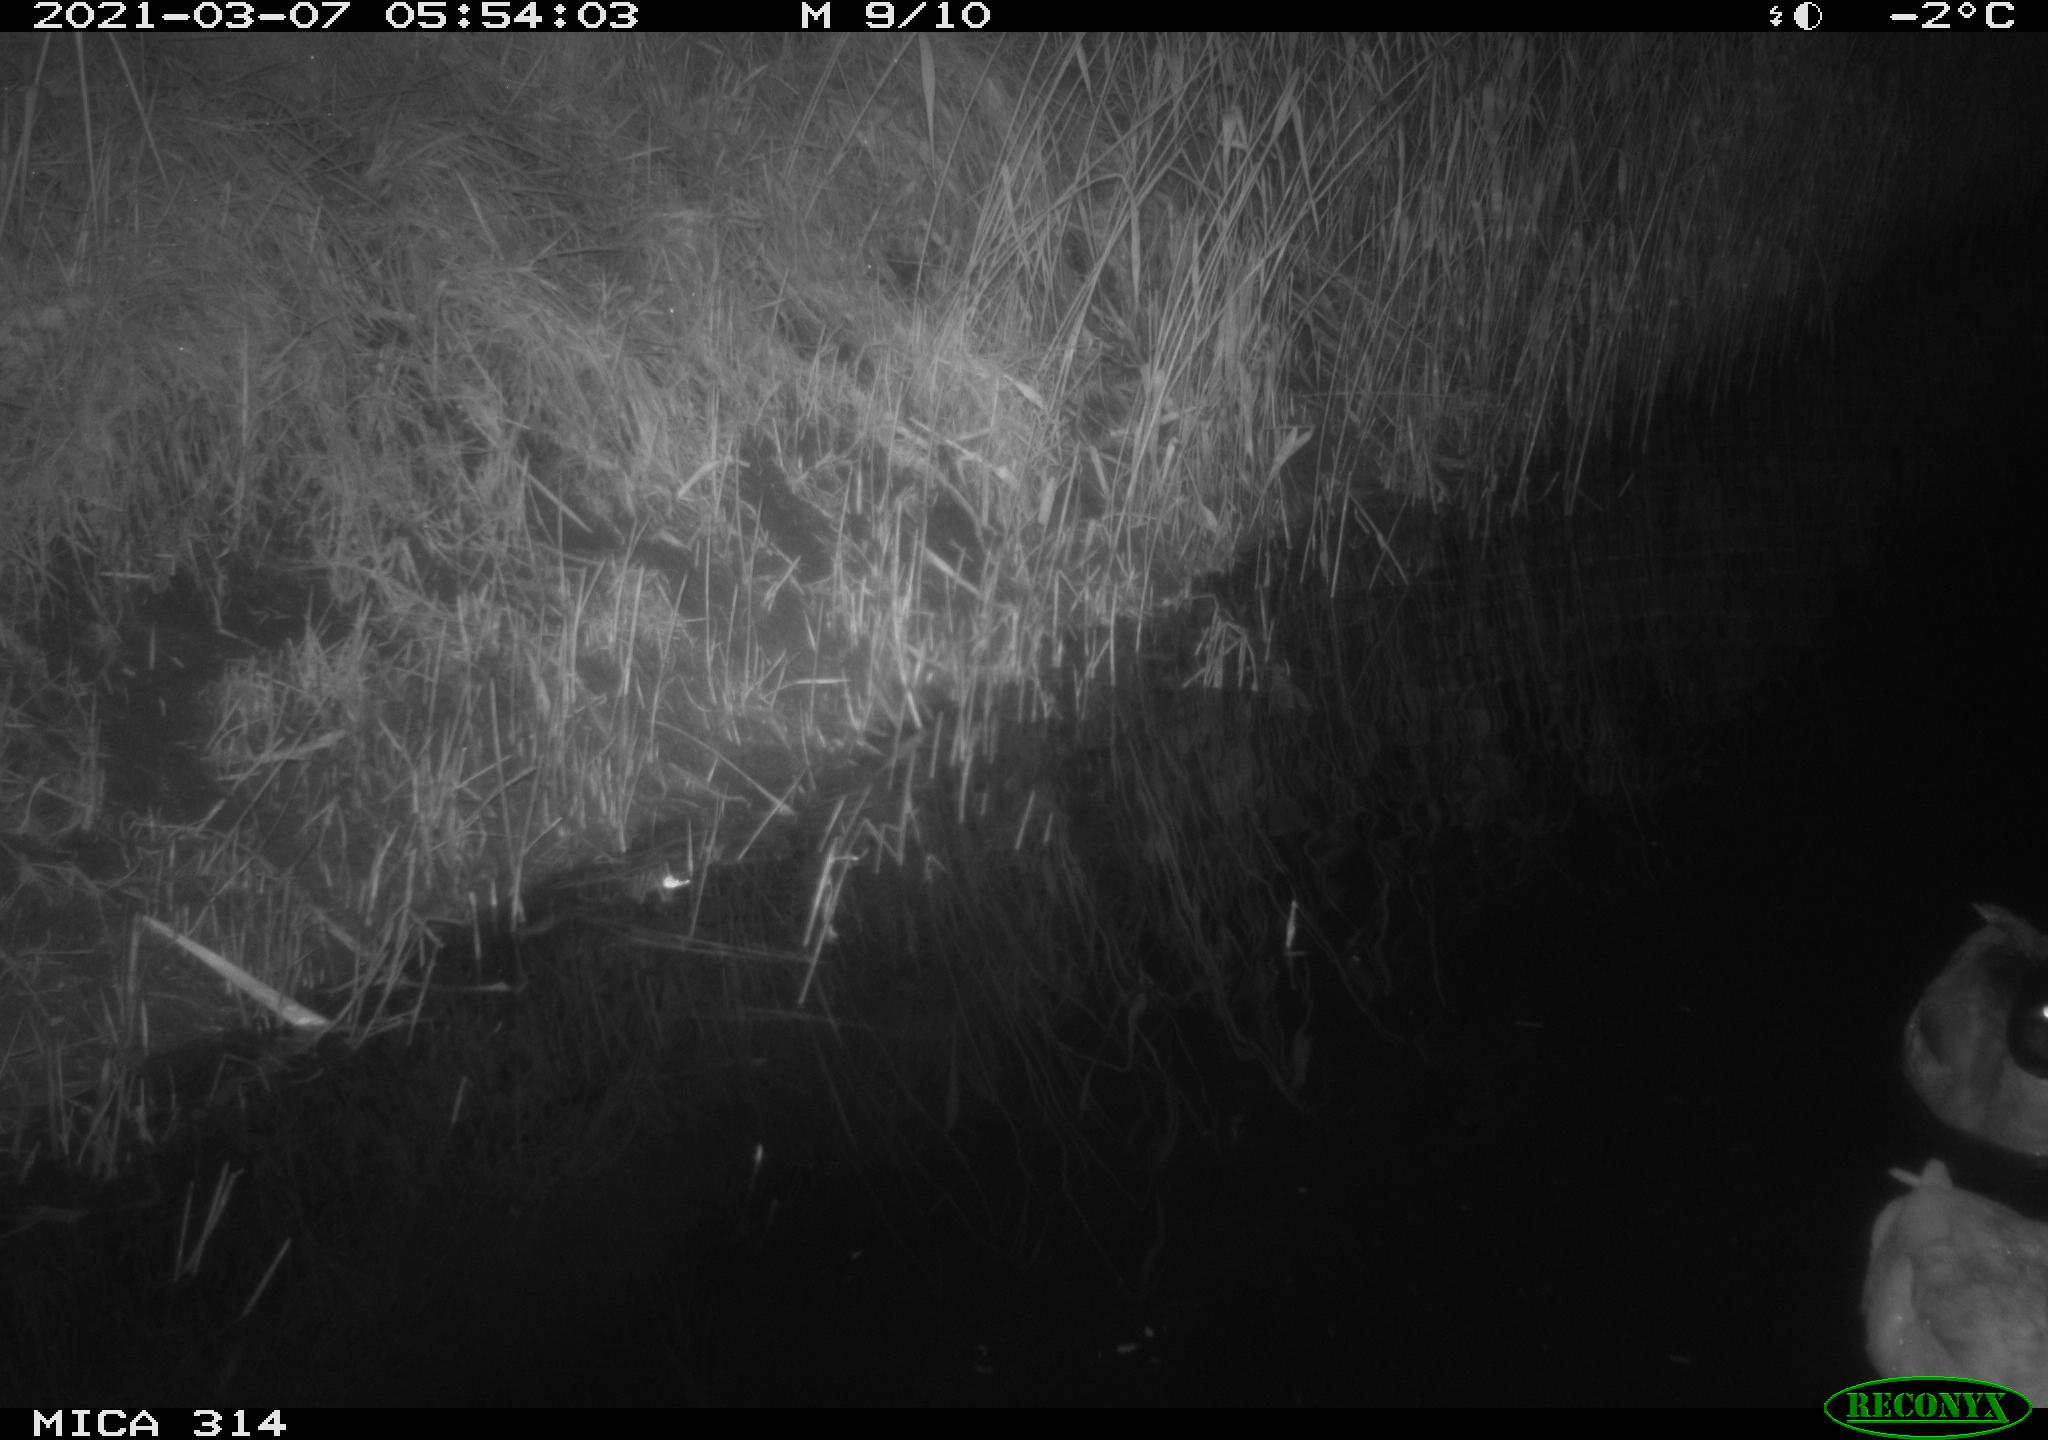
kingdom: Animalia
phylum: Chordata
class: Aves
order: Anseriformes
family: Anatidae
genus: Anas
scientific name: Anas platyrhynchos
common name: Mallard
